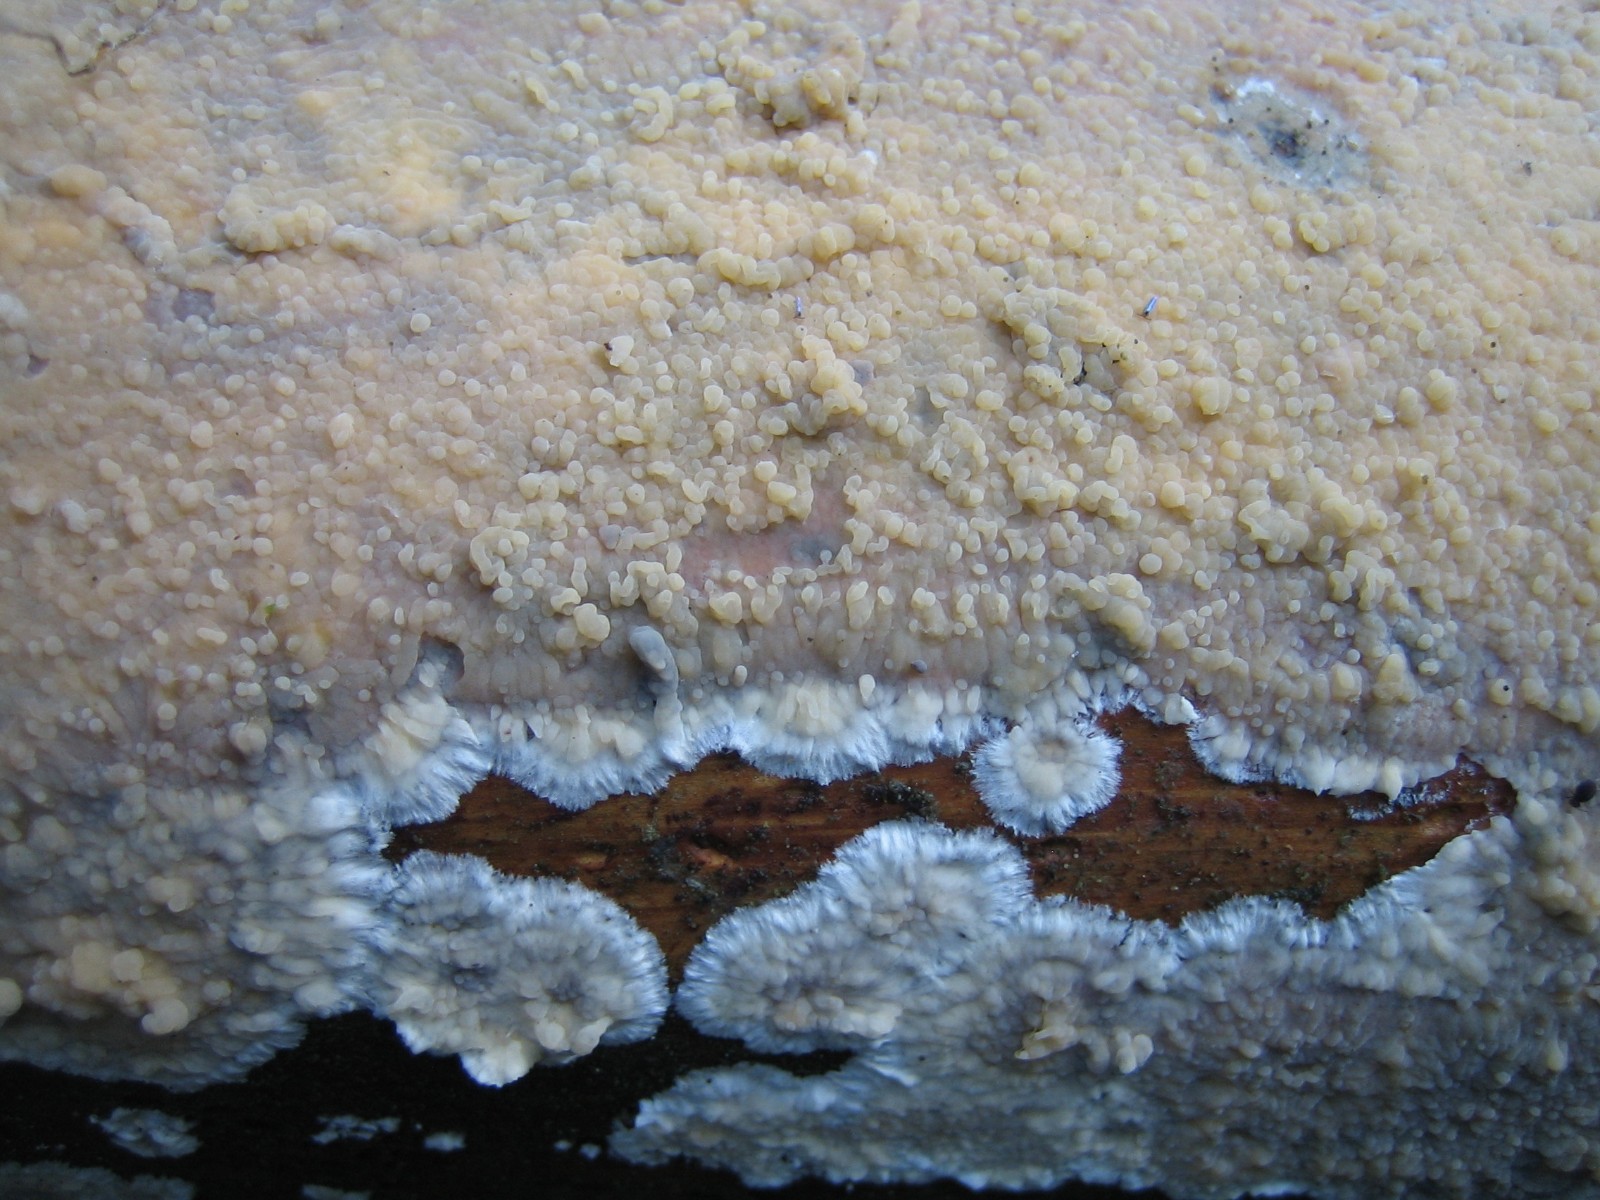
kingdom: Fungi
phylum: Basidiomycota
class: Agaricomycetes
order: Agaricales
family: Radulomycetaceae
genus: Radulomyces
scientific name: Radulomyces confluens
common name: glat naftalinskind
